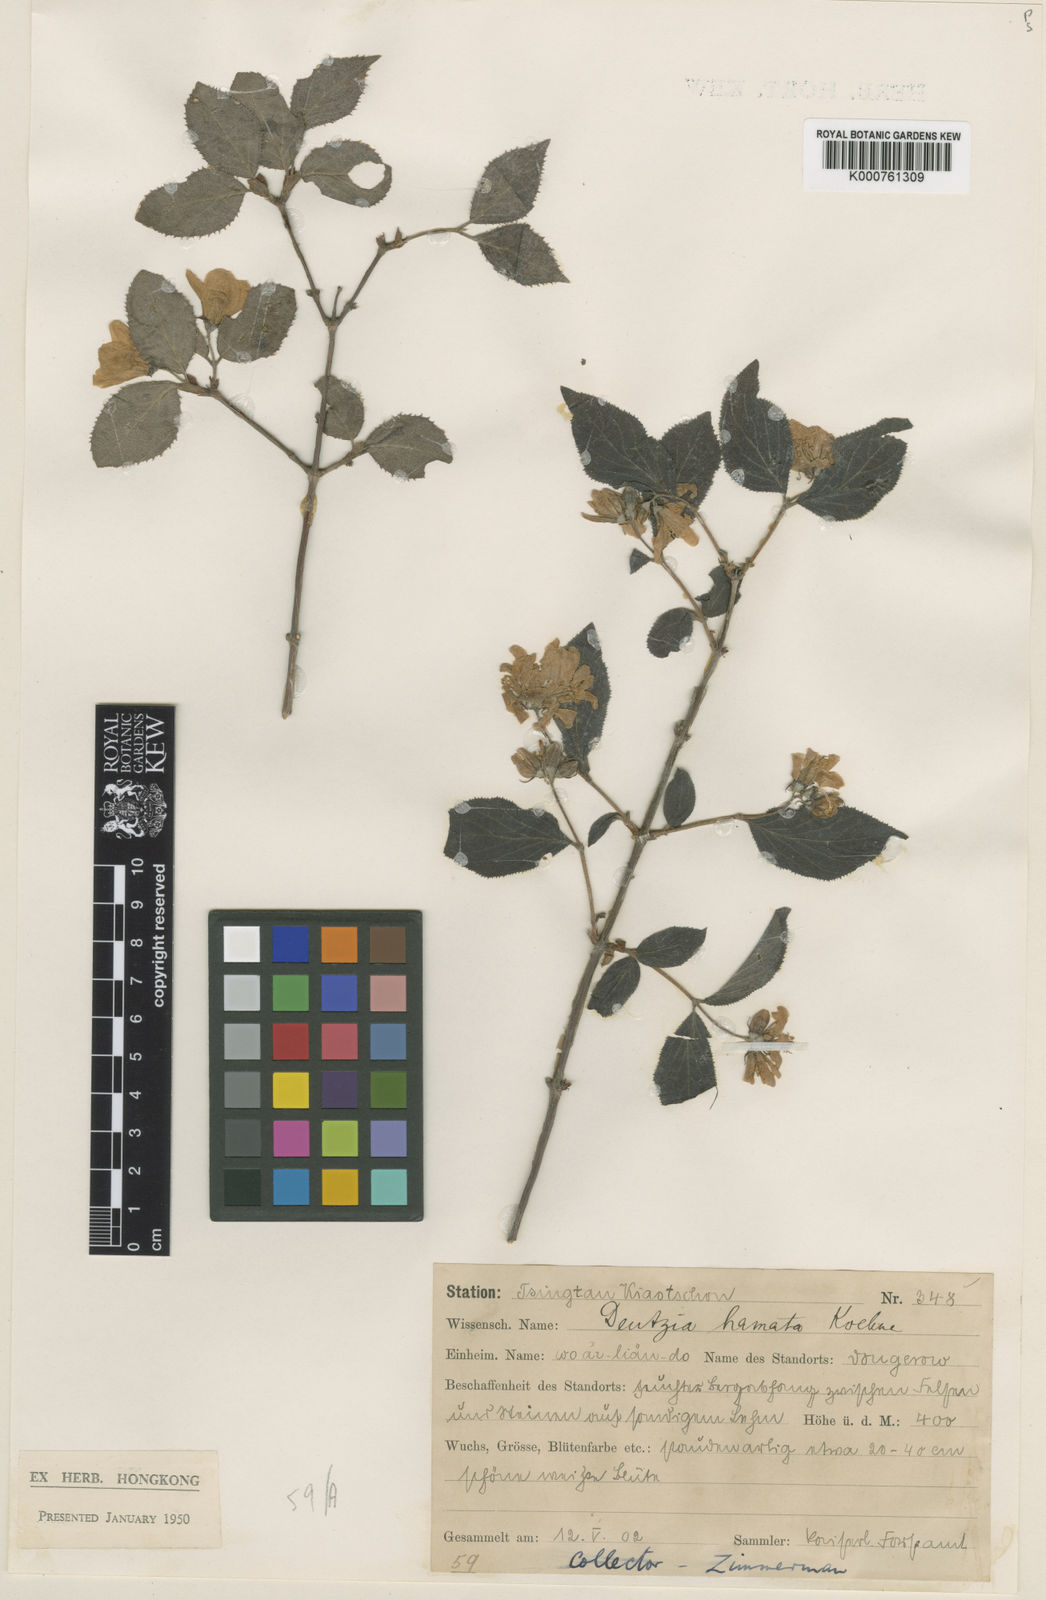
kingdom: Plantae
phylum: Tracheophyta
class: Magnoliopsida
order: Cornales
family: Hydrangeaceae
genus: Deutzia
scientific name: Deutzia
